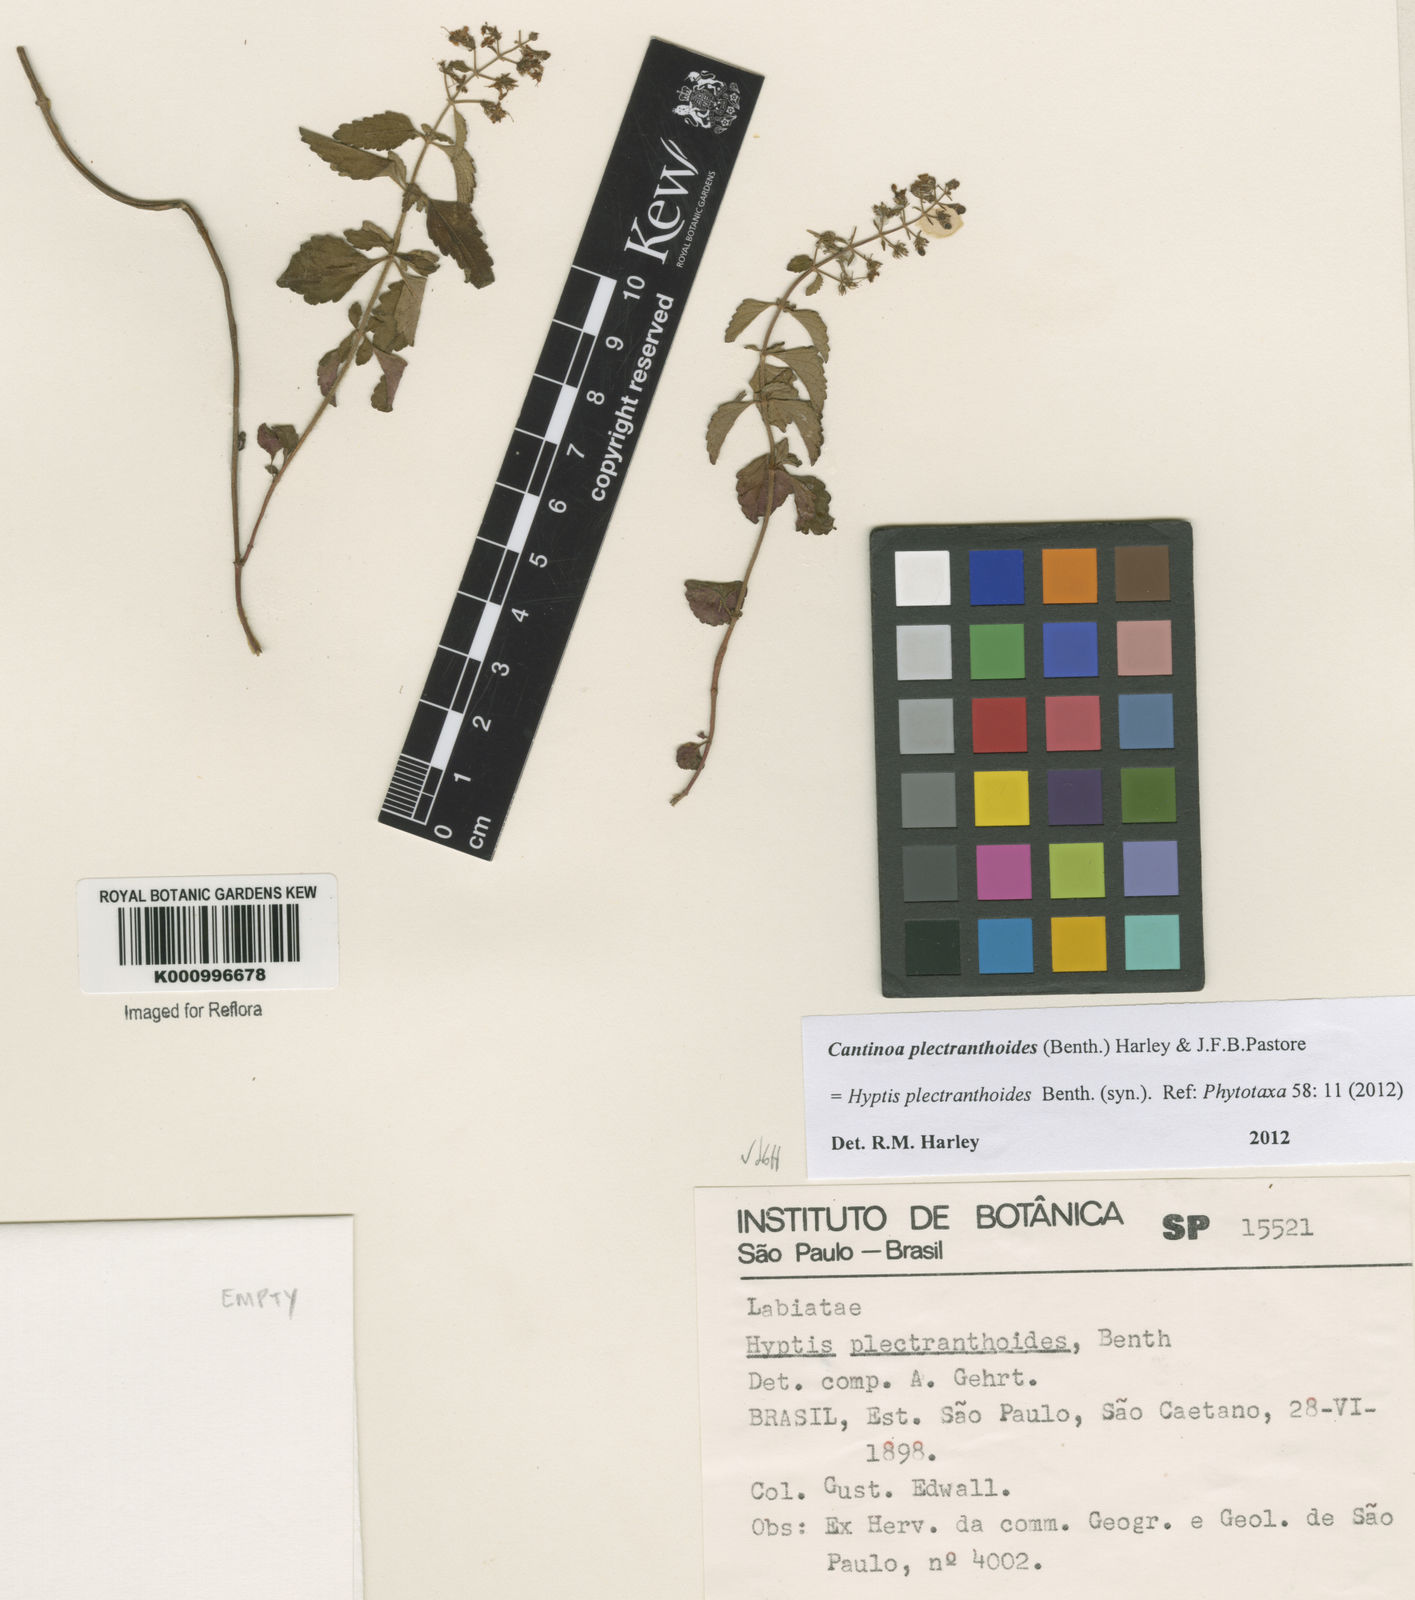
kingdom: Plantae
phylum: Tracheophyta
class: Magnoliopsida
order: Lamiales
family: Lamiaceae
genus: Cantinoa
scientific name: Cantinoa plectranthoides
